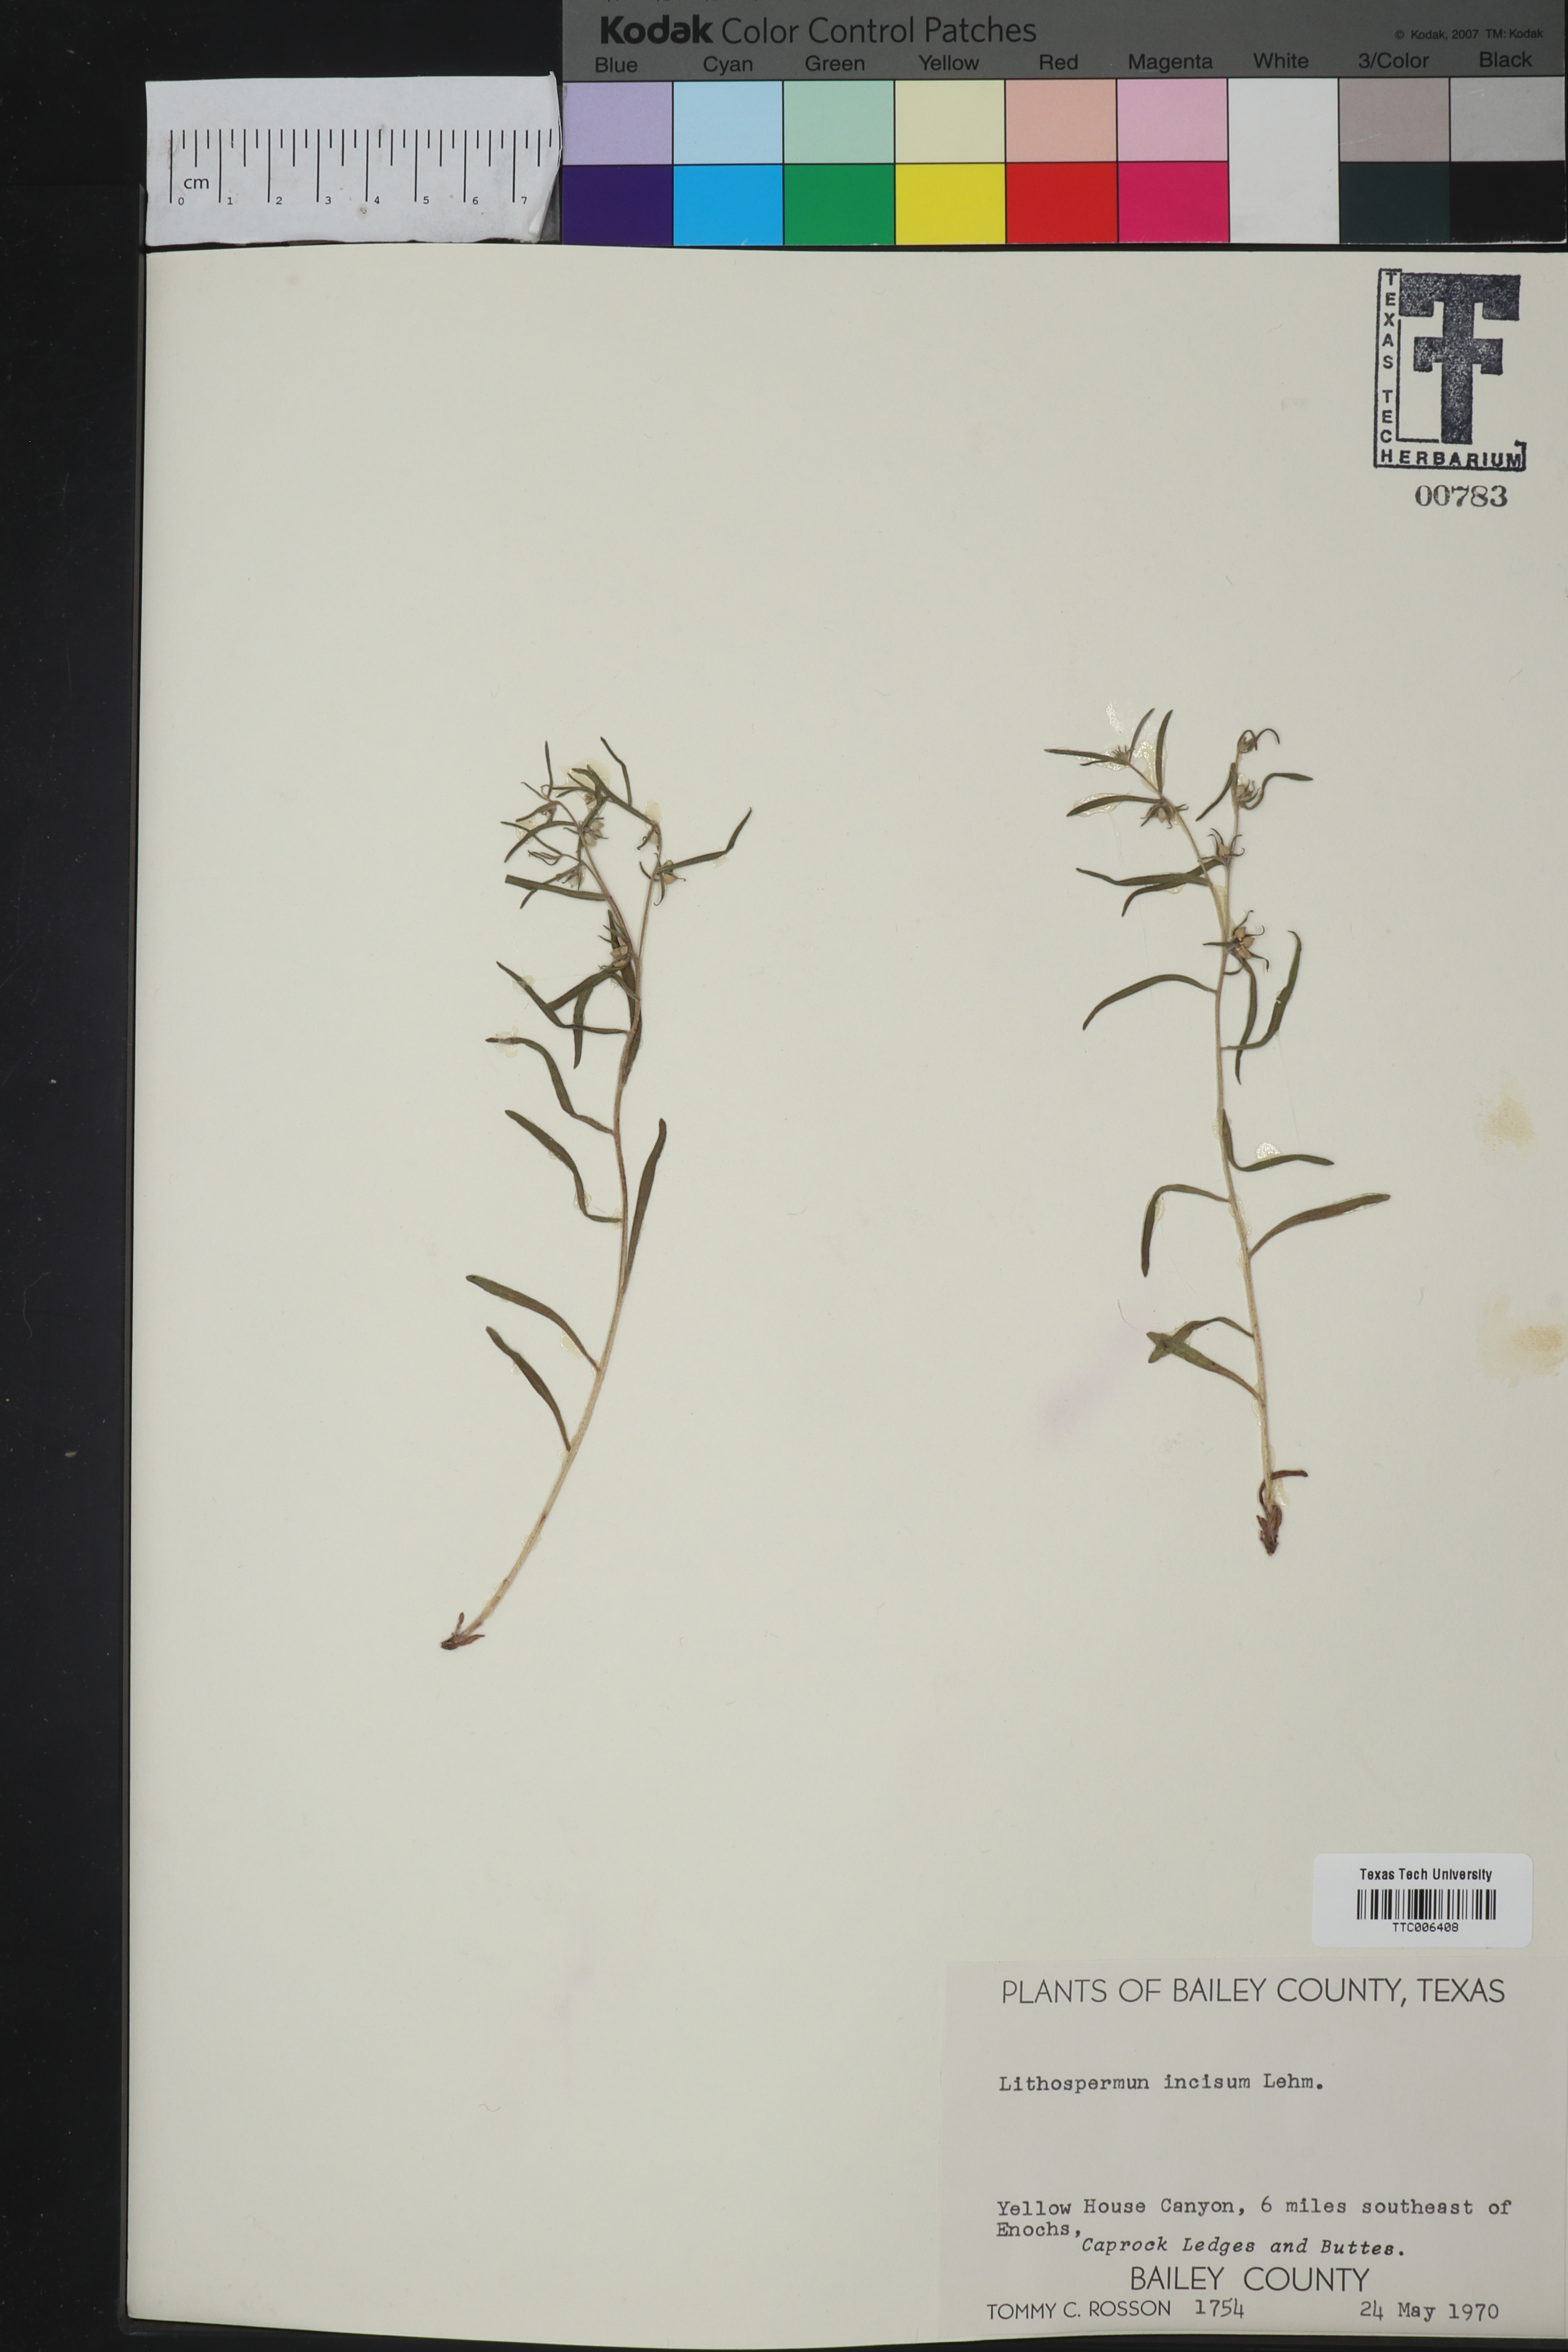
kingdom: Plantae
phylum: Tracheophyta
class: Magnoliopsida
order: Boraginales
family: Boraginaceae
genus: Lithospermum
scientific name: Lithospermum incisum
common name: Fringed gromwell
